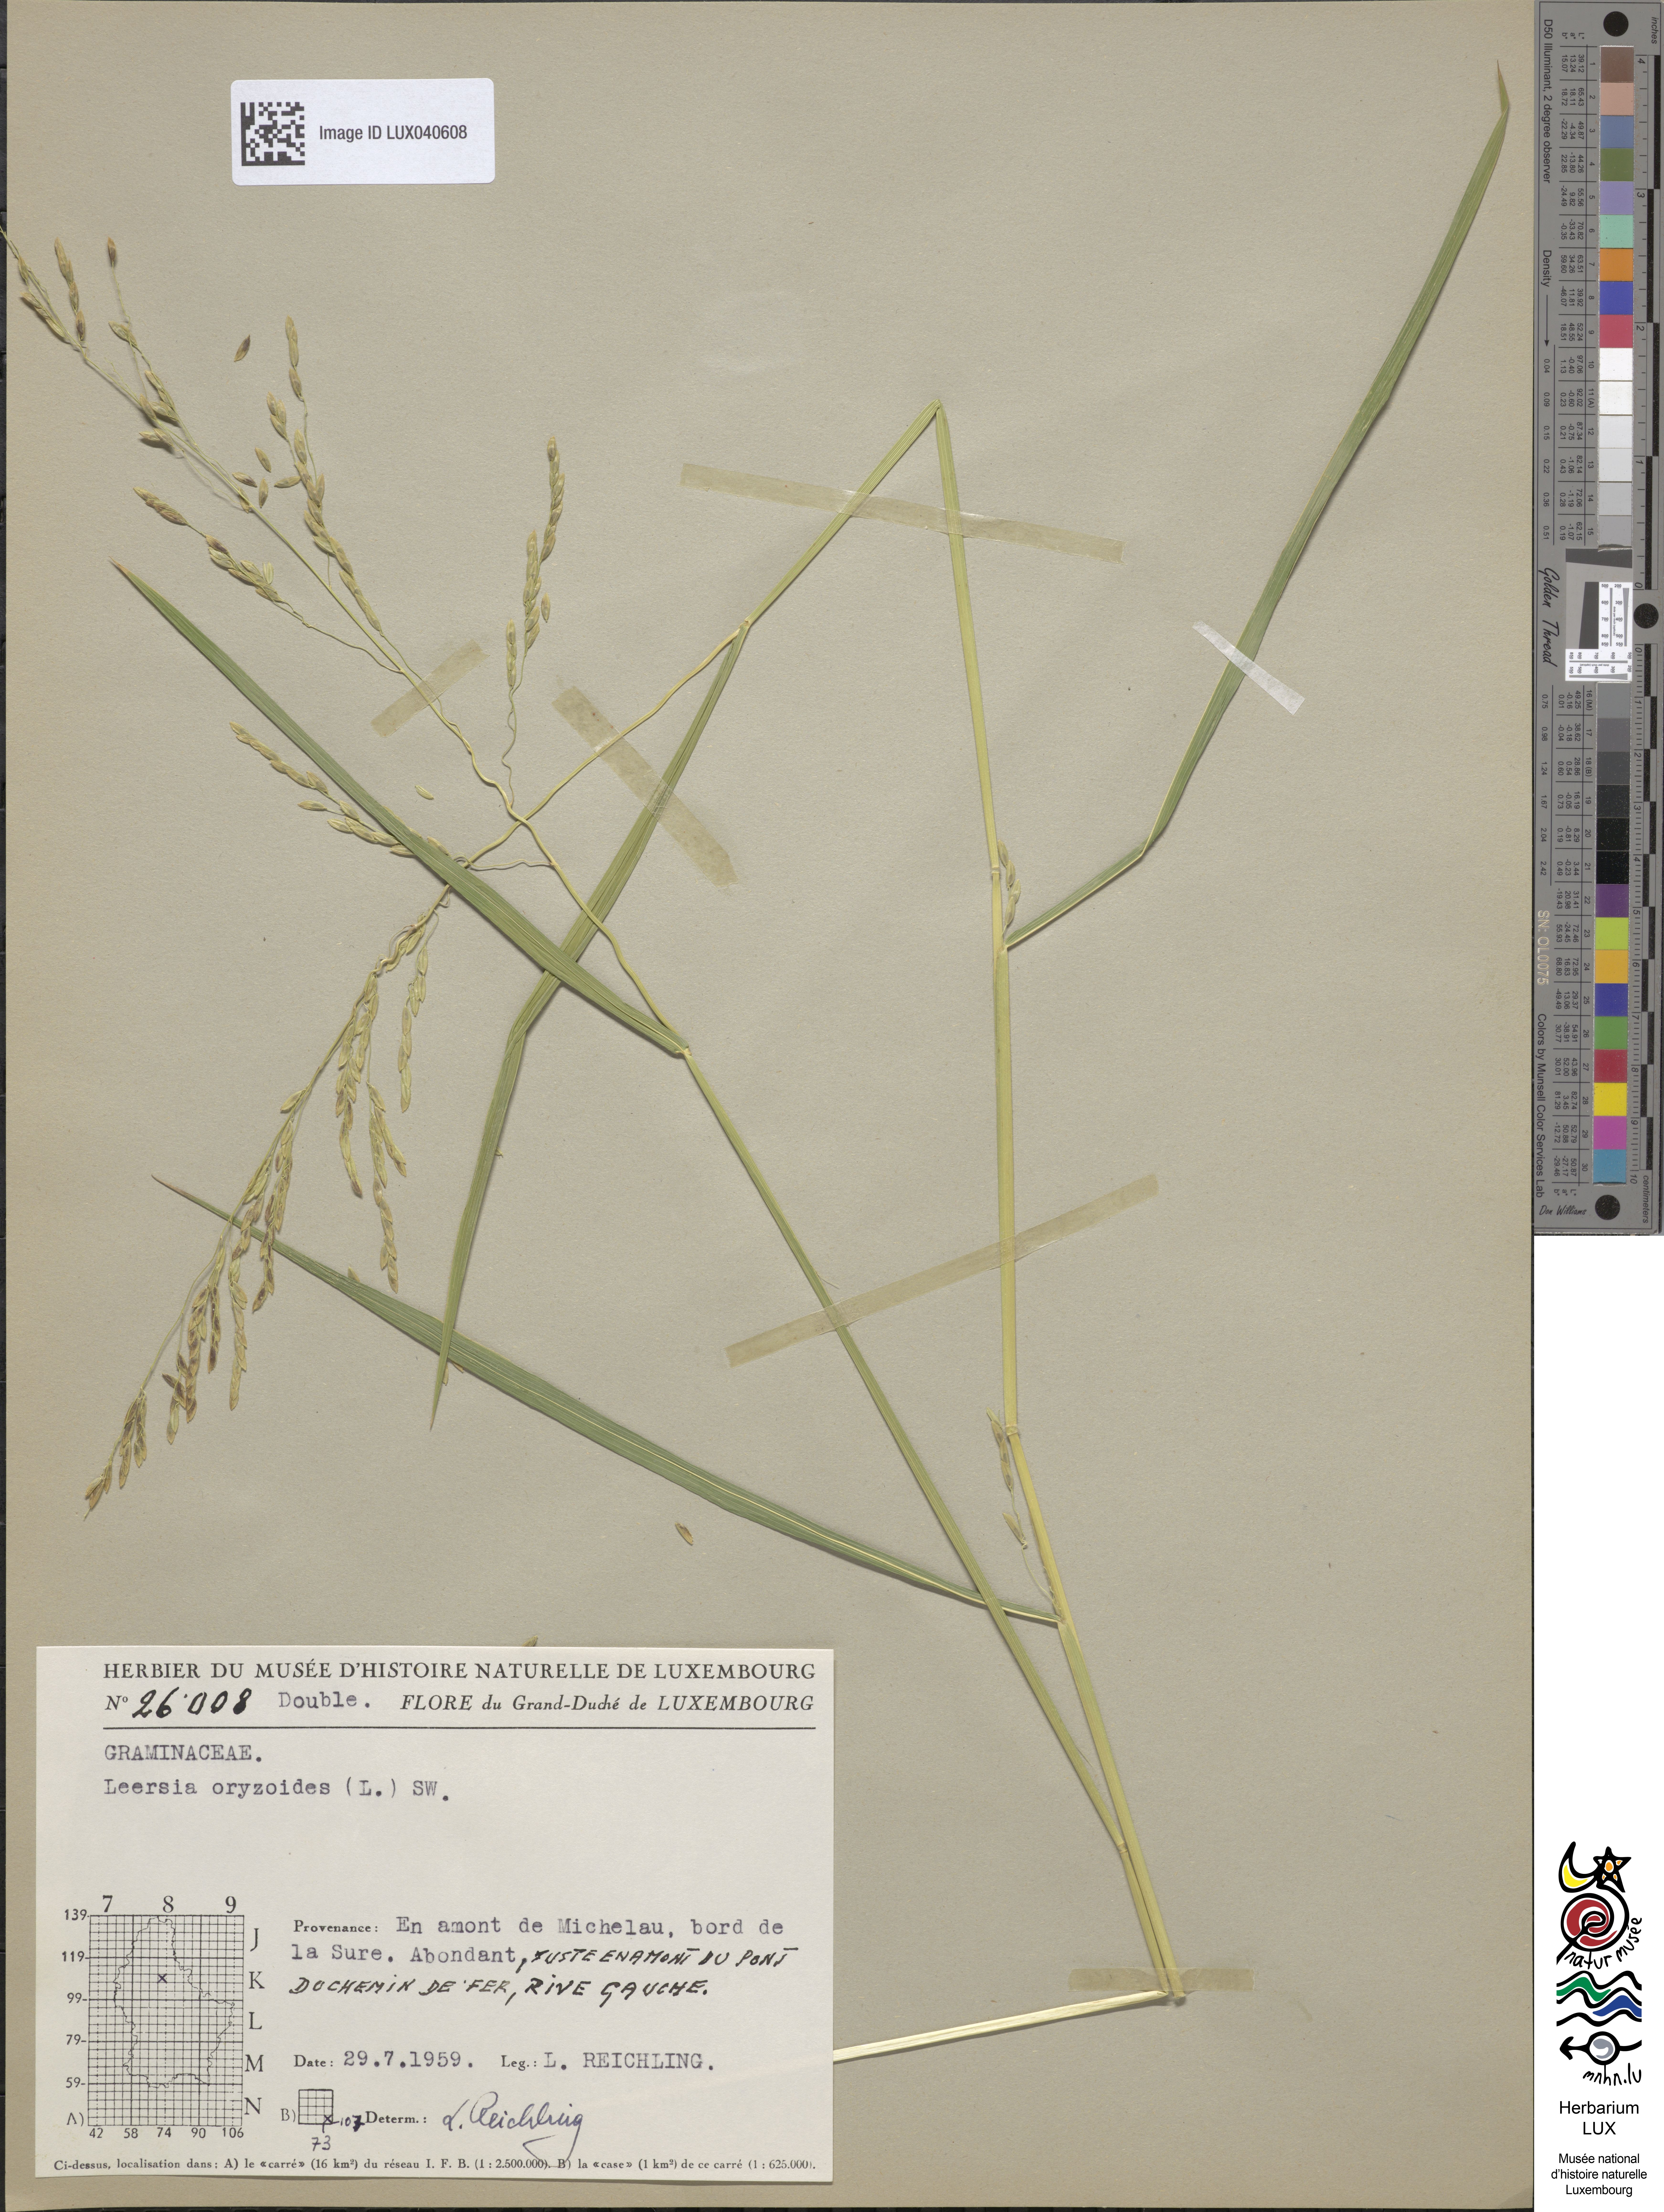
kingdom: Plantae
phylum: Tracheophyta
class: Liliopsida
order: Poales
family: Poaceae
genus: Leersia
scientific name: Leersia oryzoides
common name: Cut-grass
